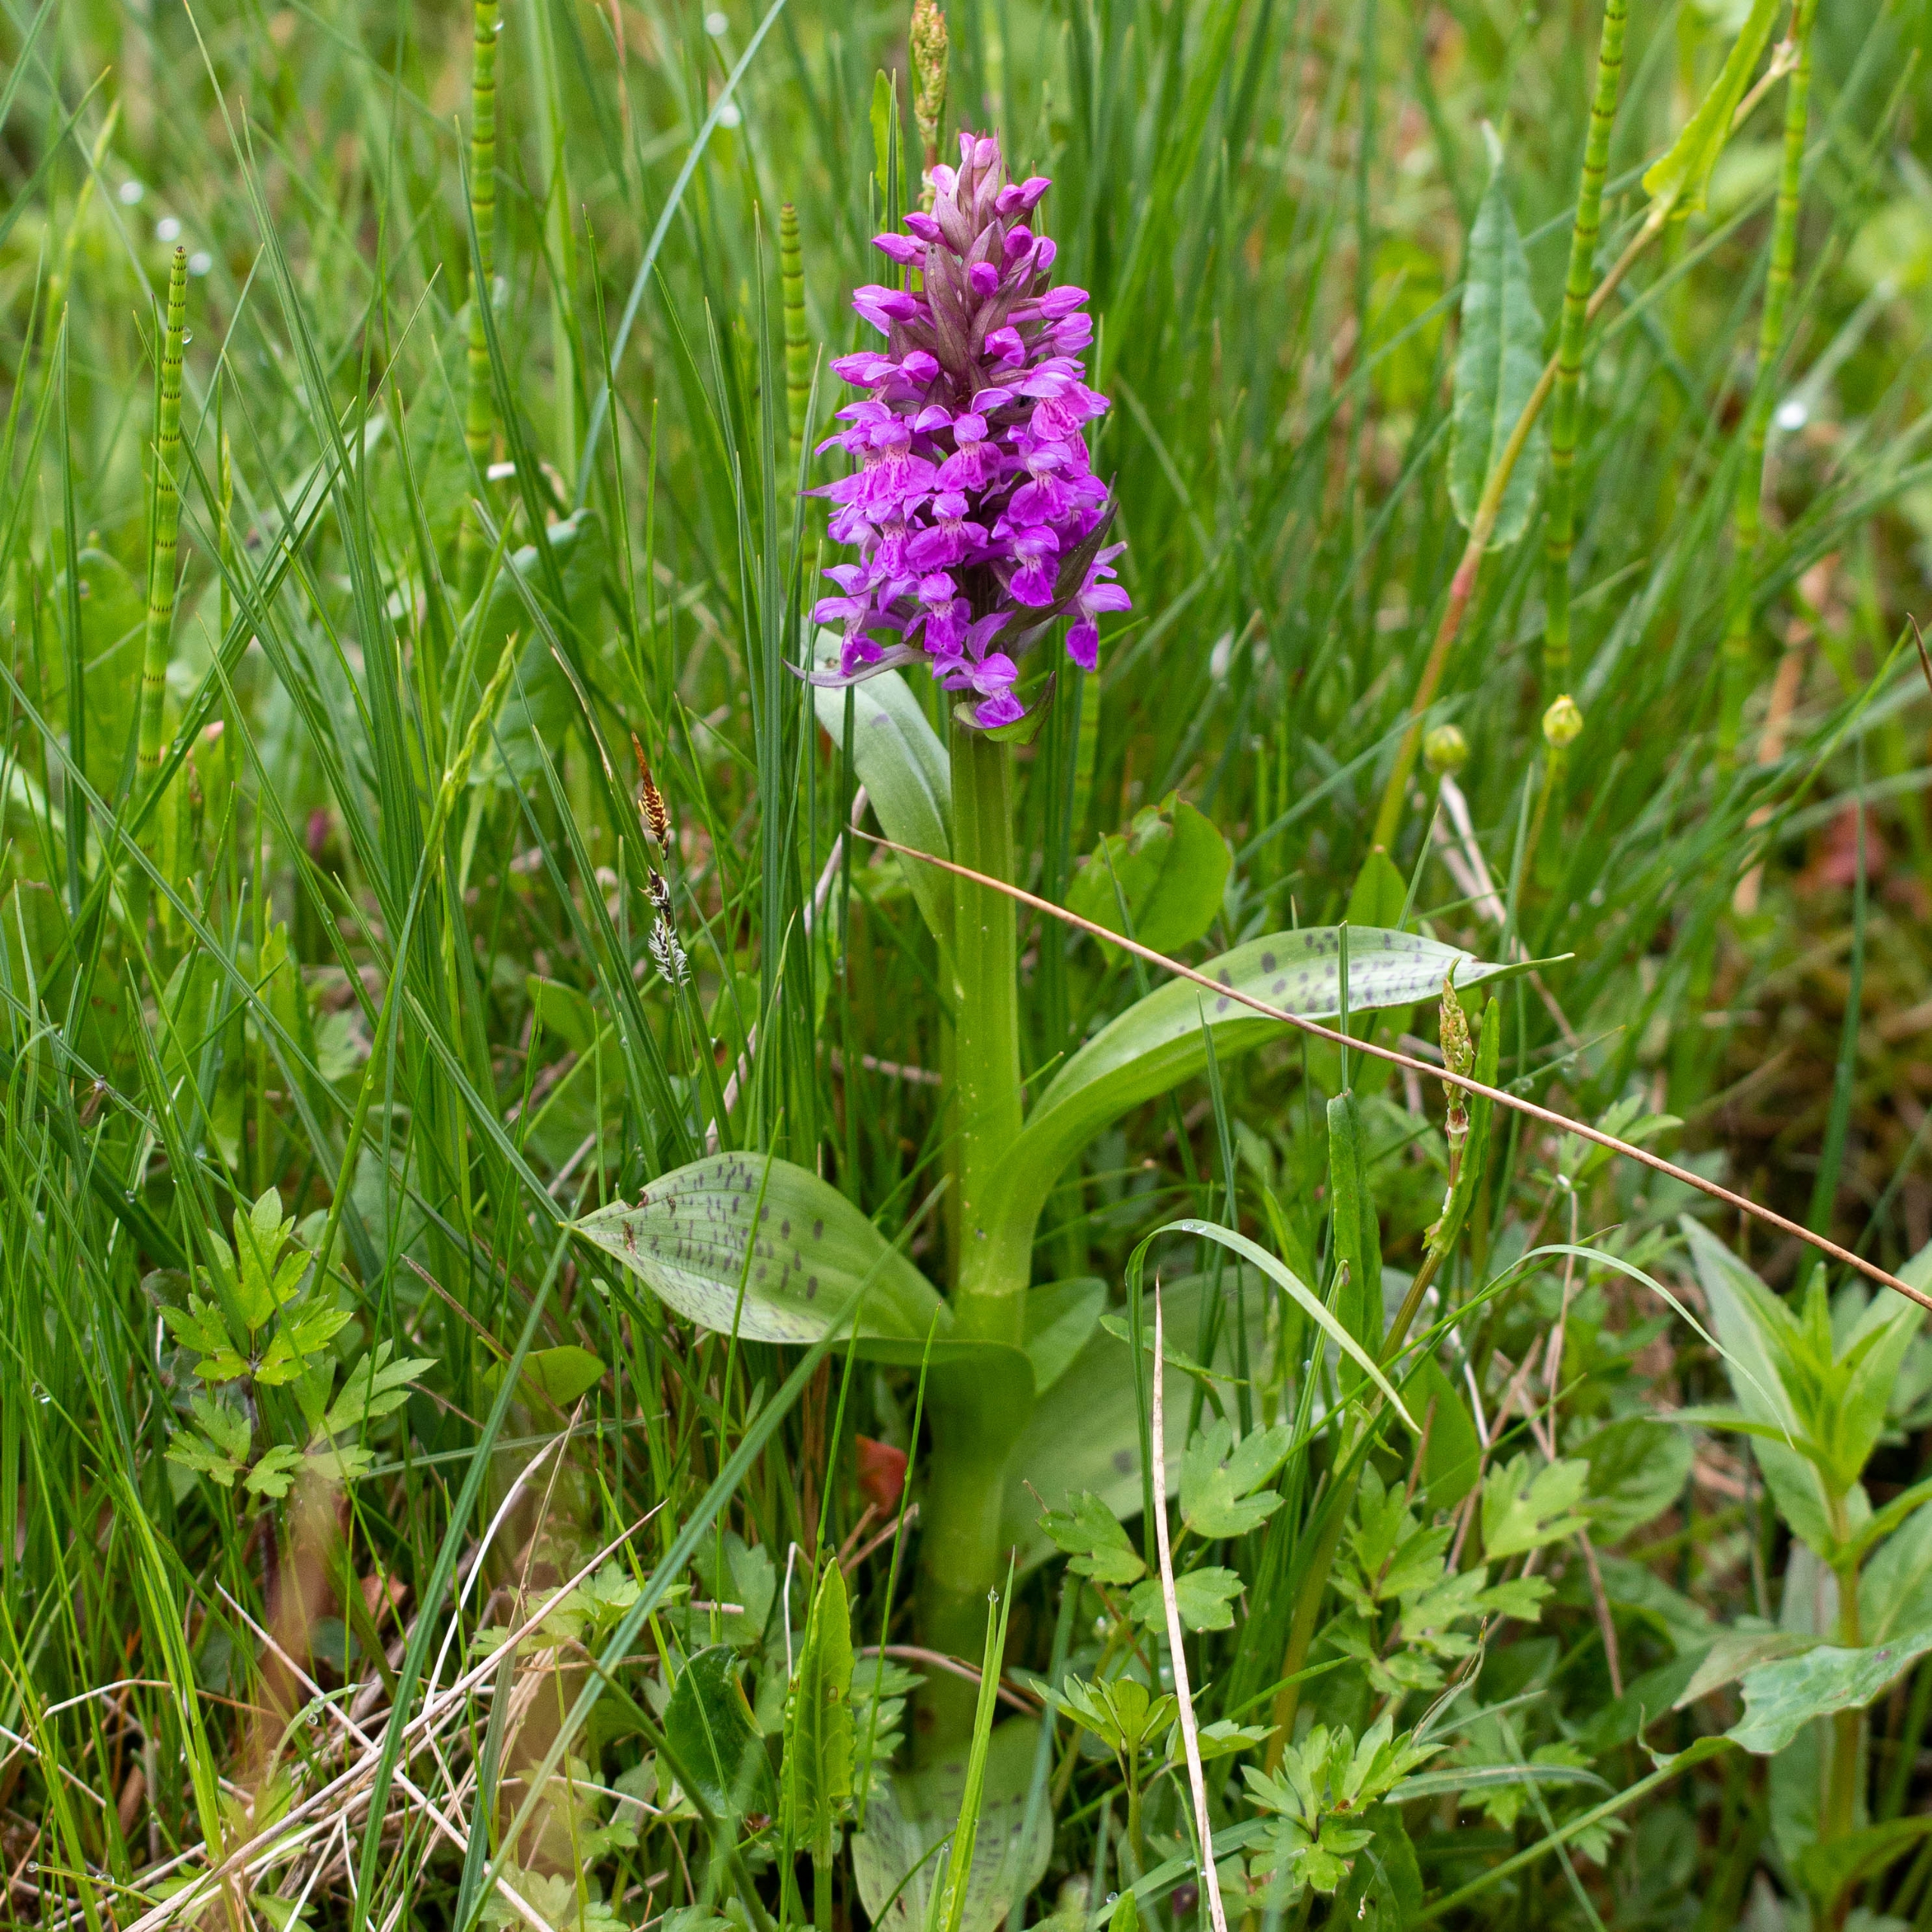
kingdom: Plantae
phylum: Tracheophyta
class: Liliopsida
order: Asparagales
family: Orchidaceae
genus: Dactylorhiza
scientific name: Dactylorhiza majalis
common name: Maj-gøgeurt
